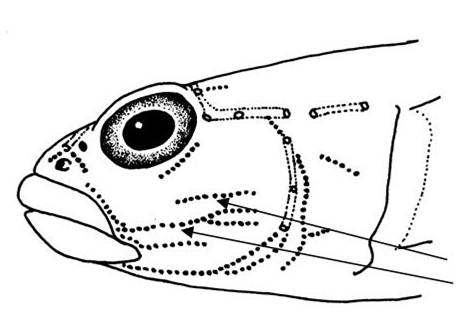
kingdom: Animalia
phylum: Chordata
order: Perciformes
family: Gobiidae
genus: Bathygobius
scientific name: Bathygobius coalitus
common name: Whitespotted goby
